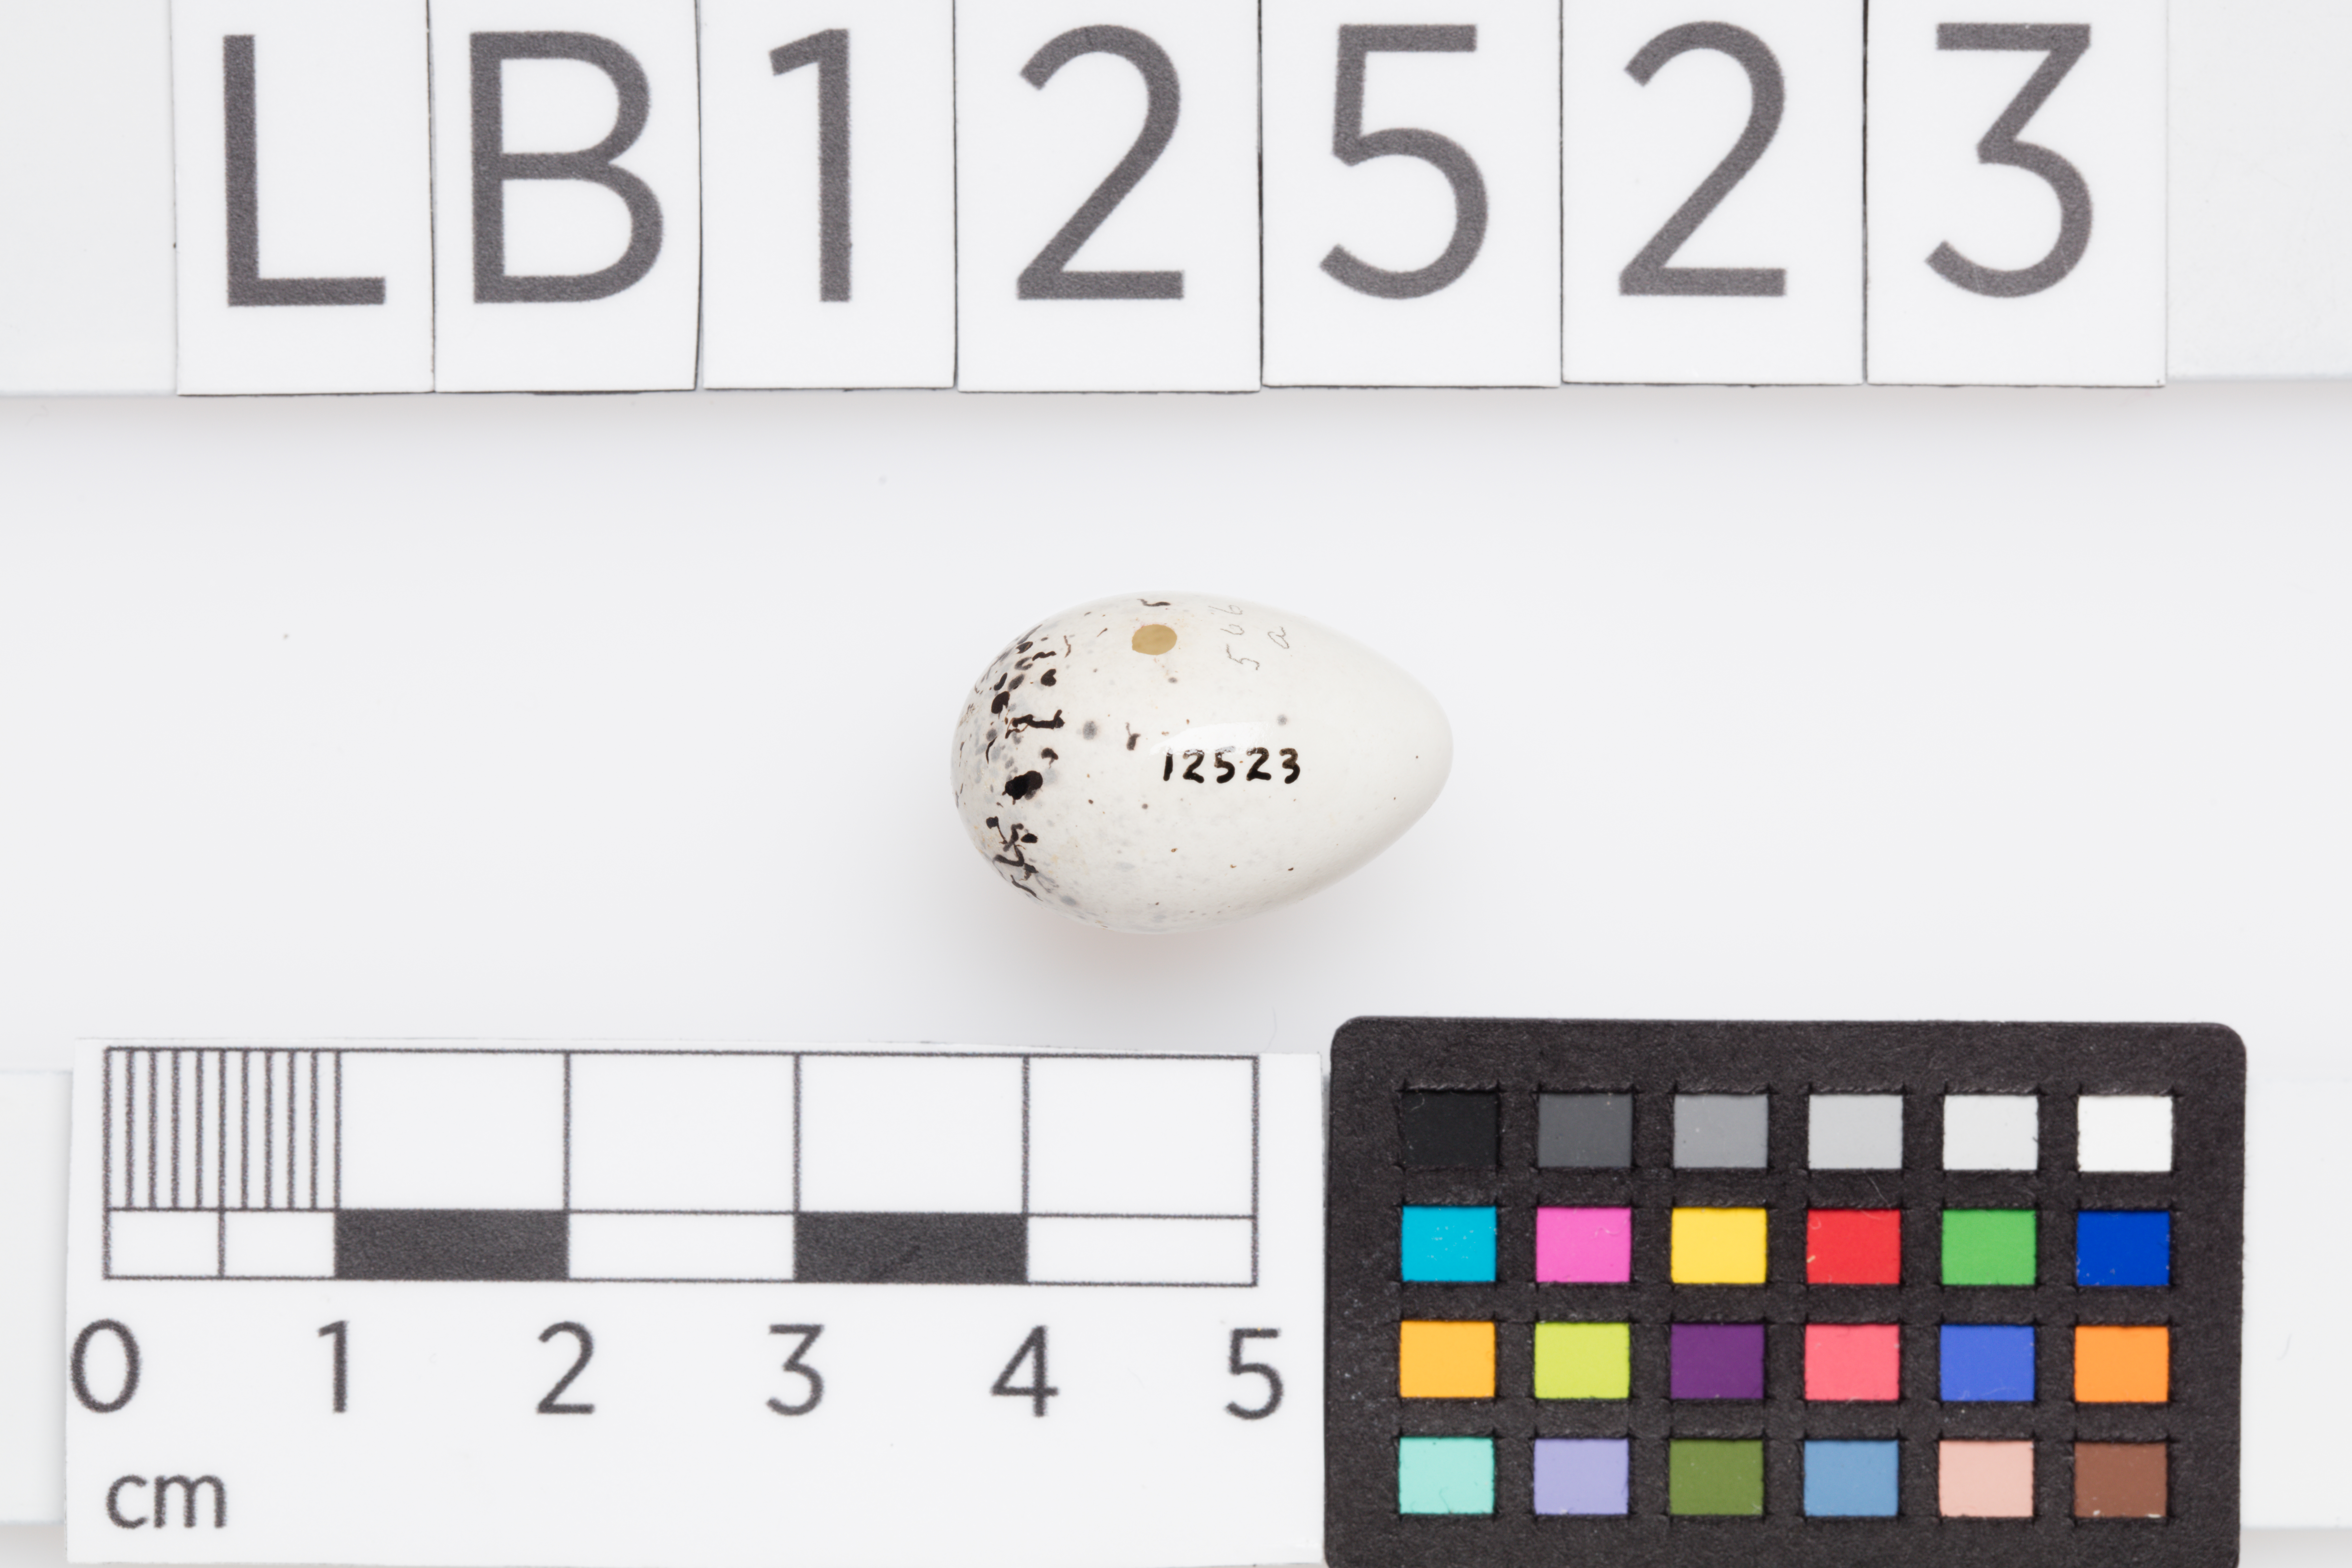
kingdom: Animalia
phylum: Chordata
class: Aves
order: Passeriformes
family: Passerellidae
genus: Spizella
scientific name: Spizella passerina
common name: Chipping sparrow
